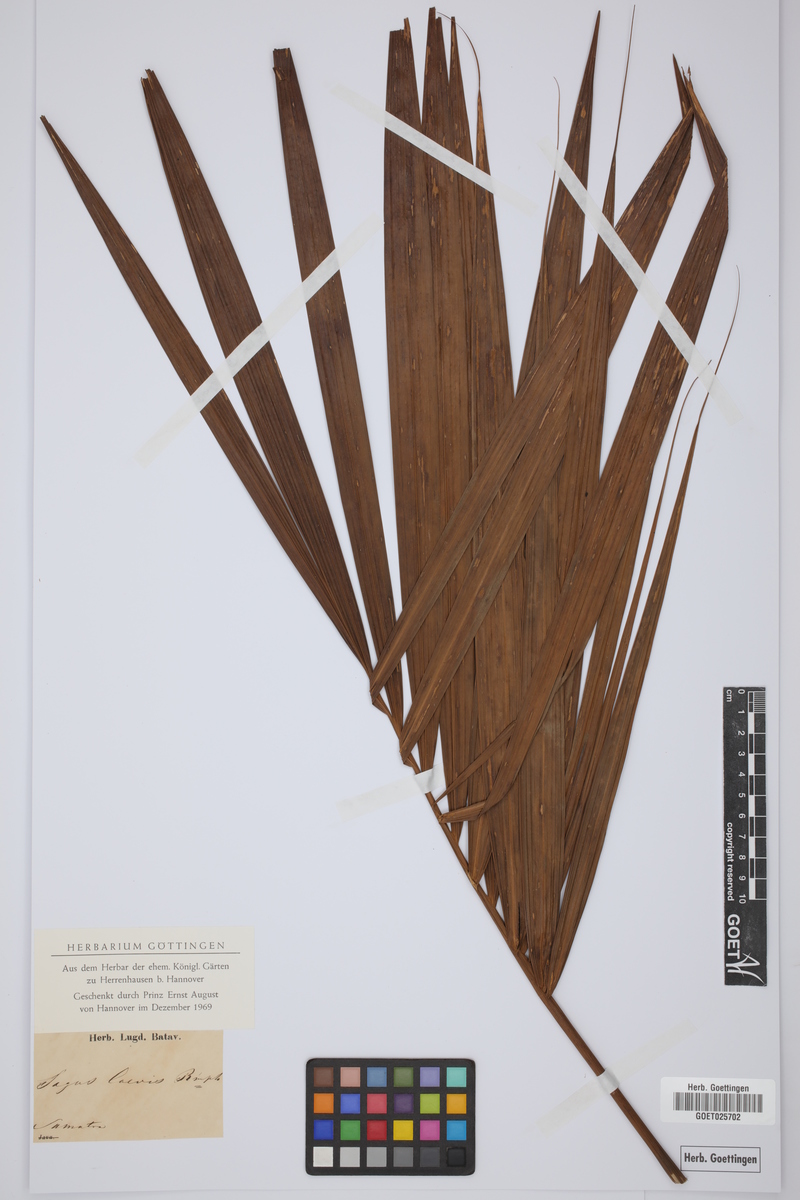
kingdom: Plantae
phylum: Tracheophyta
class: Liliopsida
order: Arecales
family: Arecaceae
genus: Metroxylon
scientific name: Metroxylon sagu
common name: Sago palm
